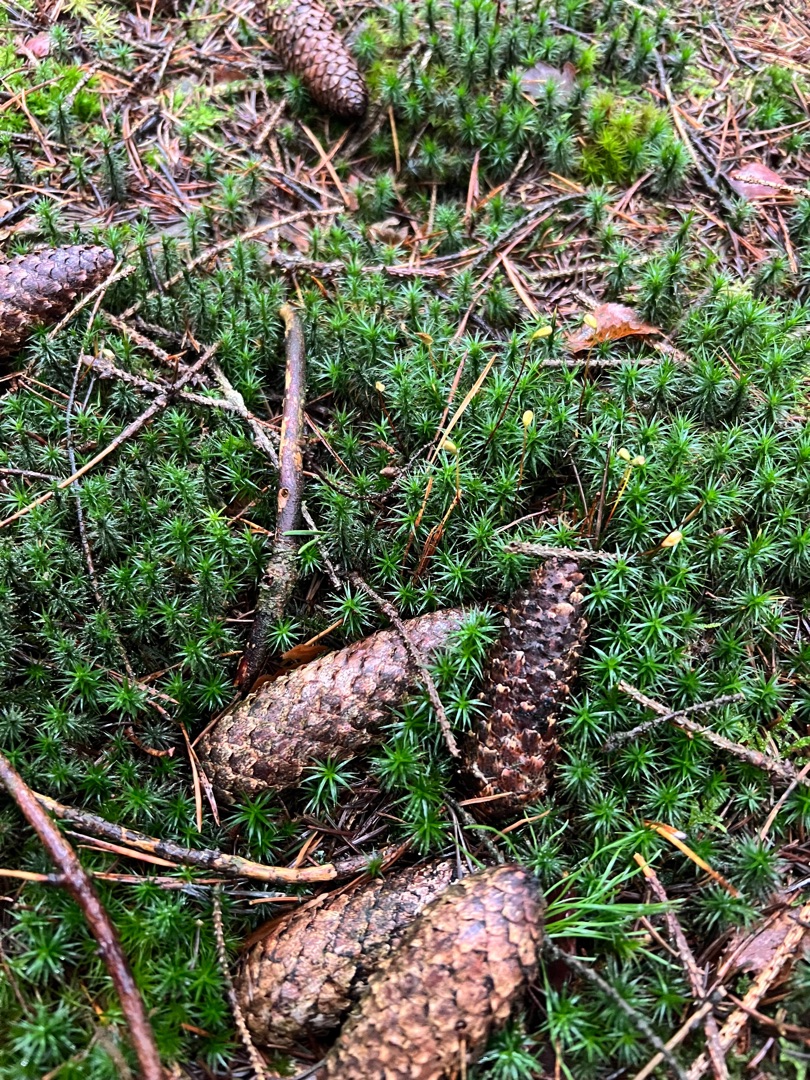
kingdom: Plantae
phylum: Bryophyta
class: Polytrichopsida
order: Polytrichales
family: Polytrichaceae
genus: Polytrichum
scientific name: Polytrichum formosum
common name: Skov-jomfruhår
